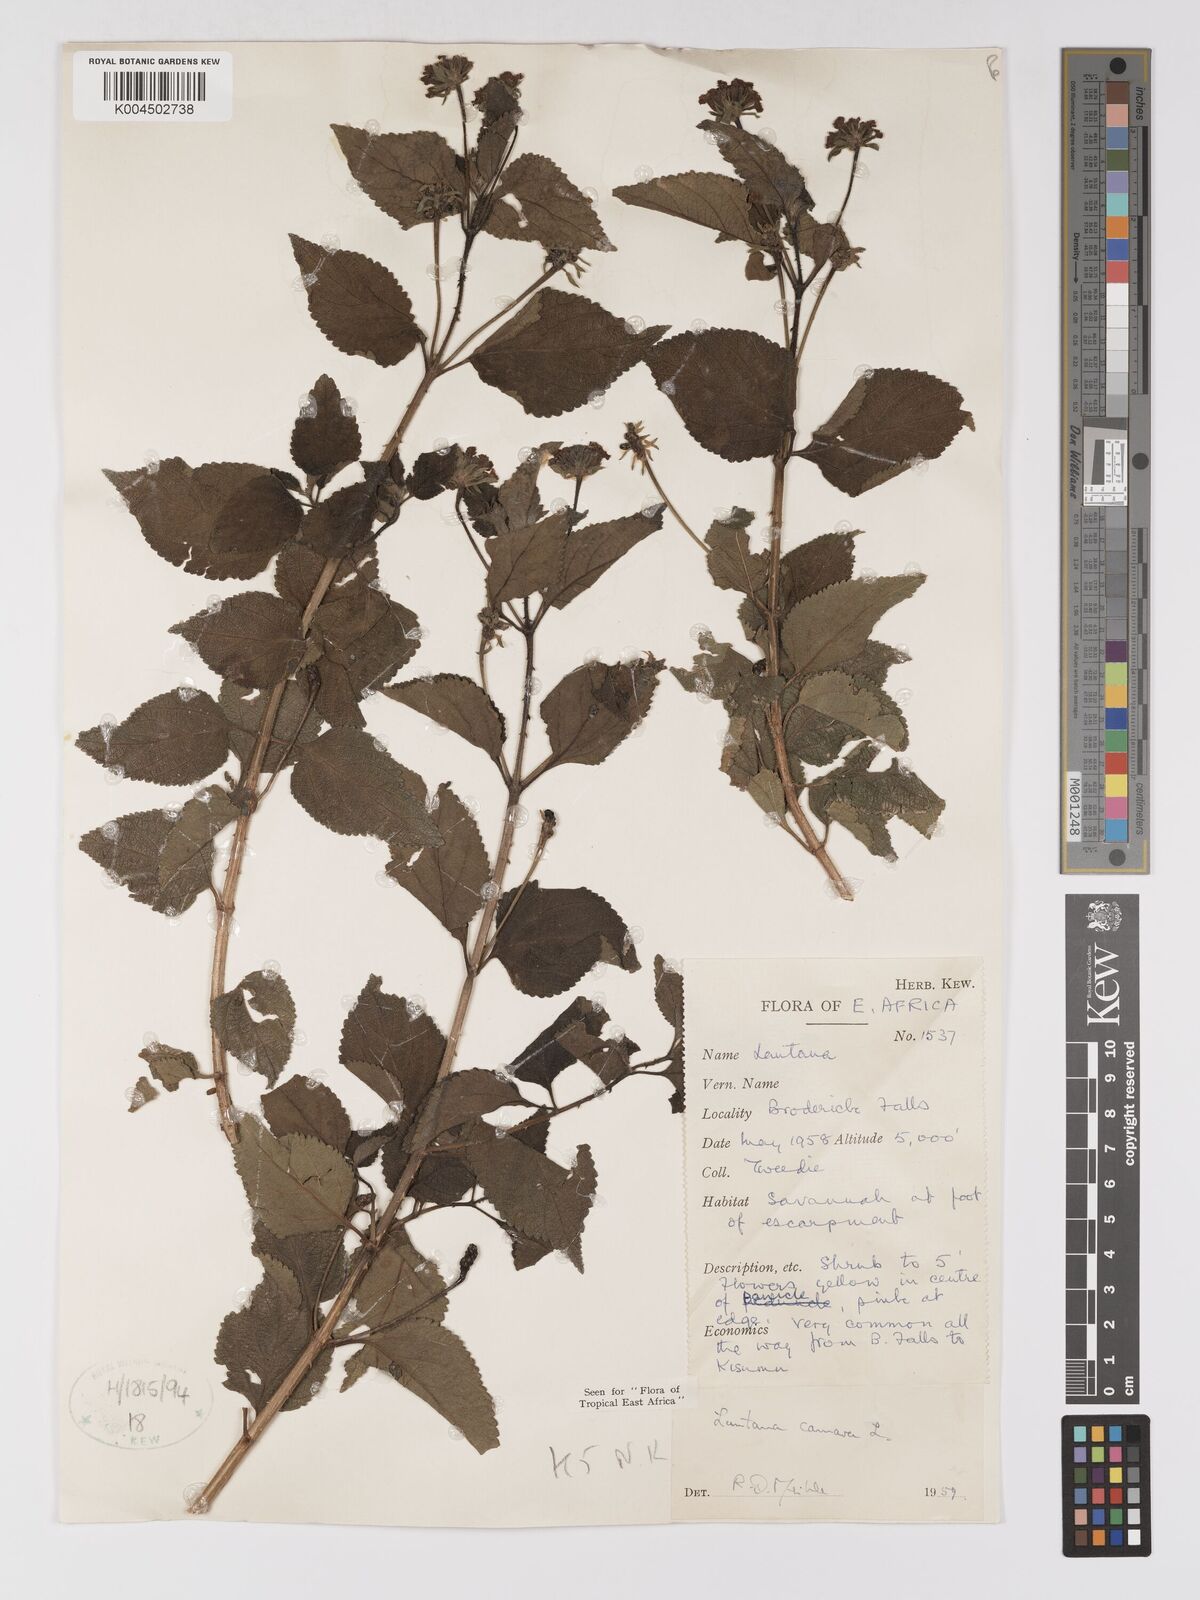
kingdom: Plantae
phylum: Tracheophyta
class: Magnoliopsida
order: Lamiales
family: Verbenaceae
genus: Lantana
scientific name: Lantana camara
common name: Lantana
